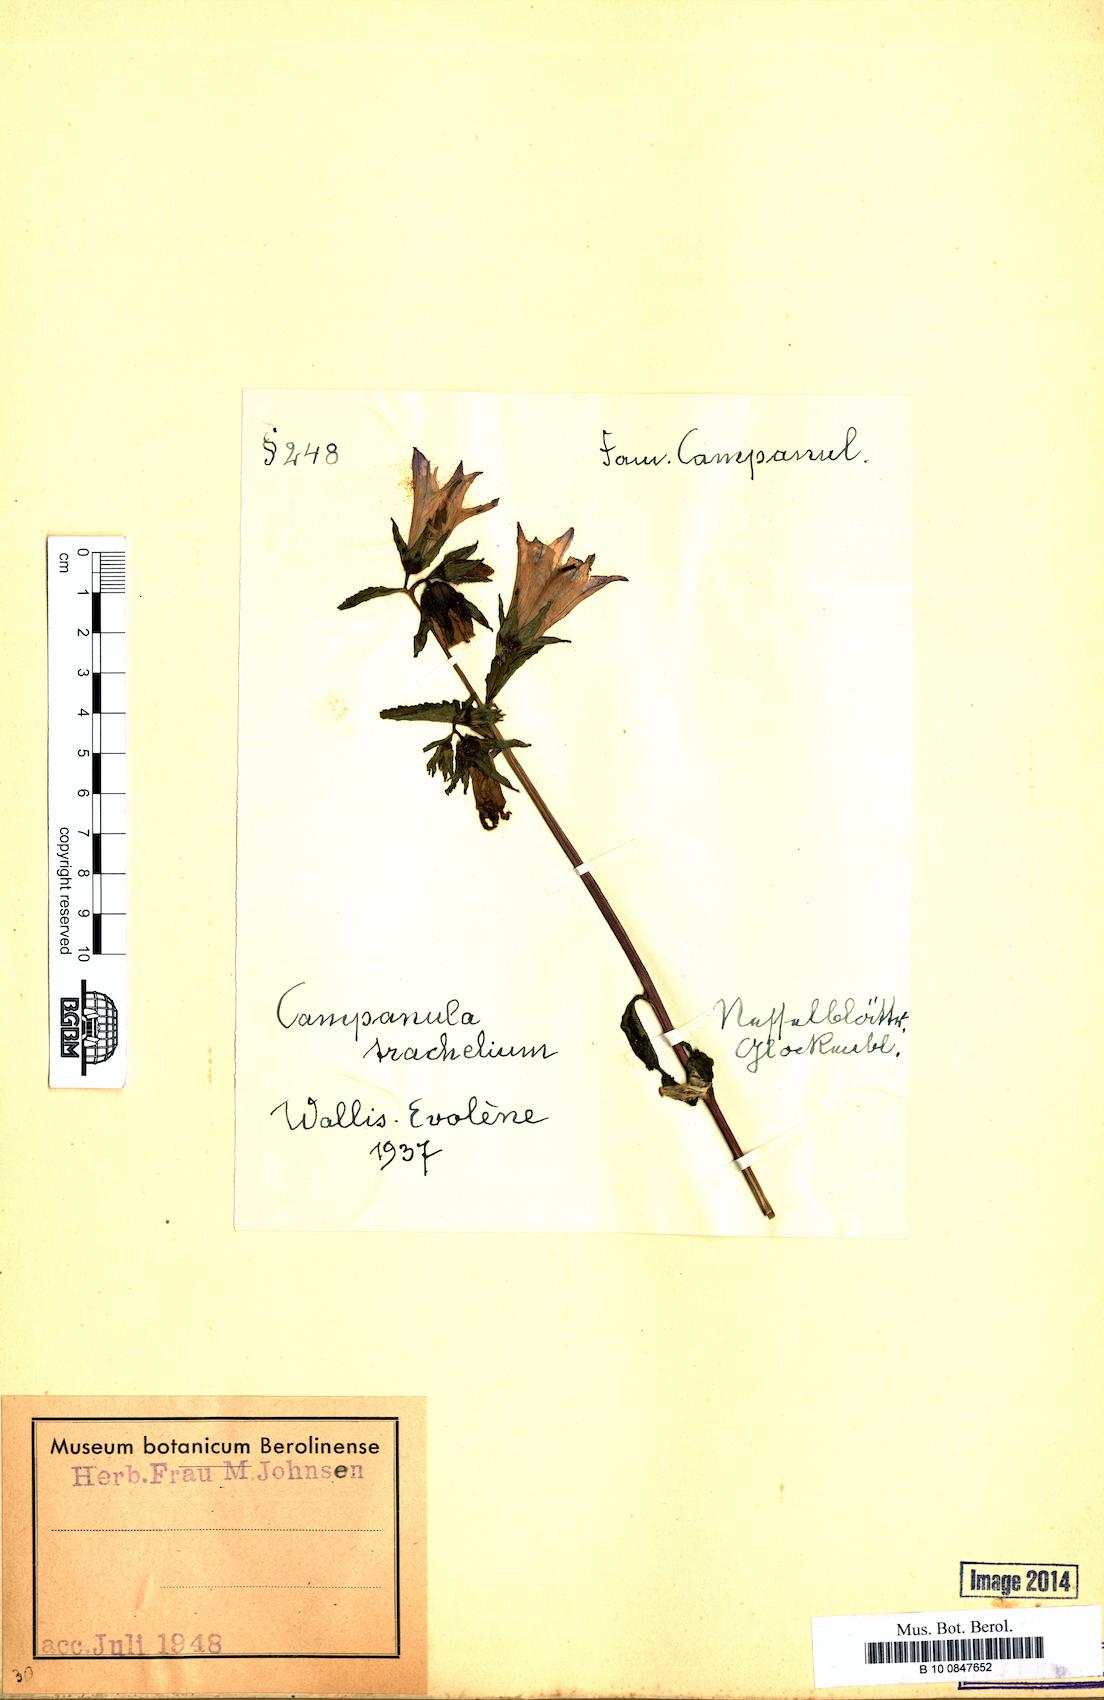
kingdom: Plantae
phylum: Tracheophyta
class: Magnoliopsida
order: Asterales
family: Campanulaceae
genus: Campanula
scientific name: Campanula trachelium
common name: Nettle-leaved bellflower
